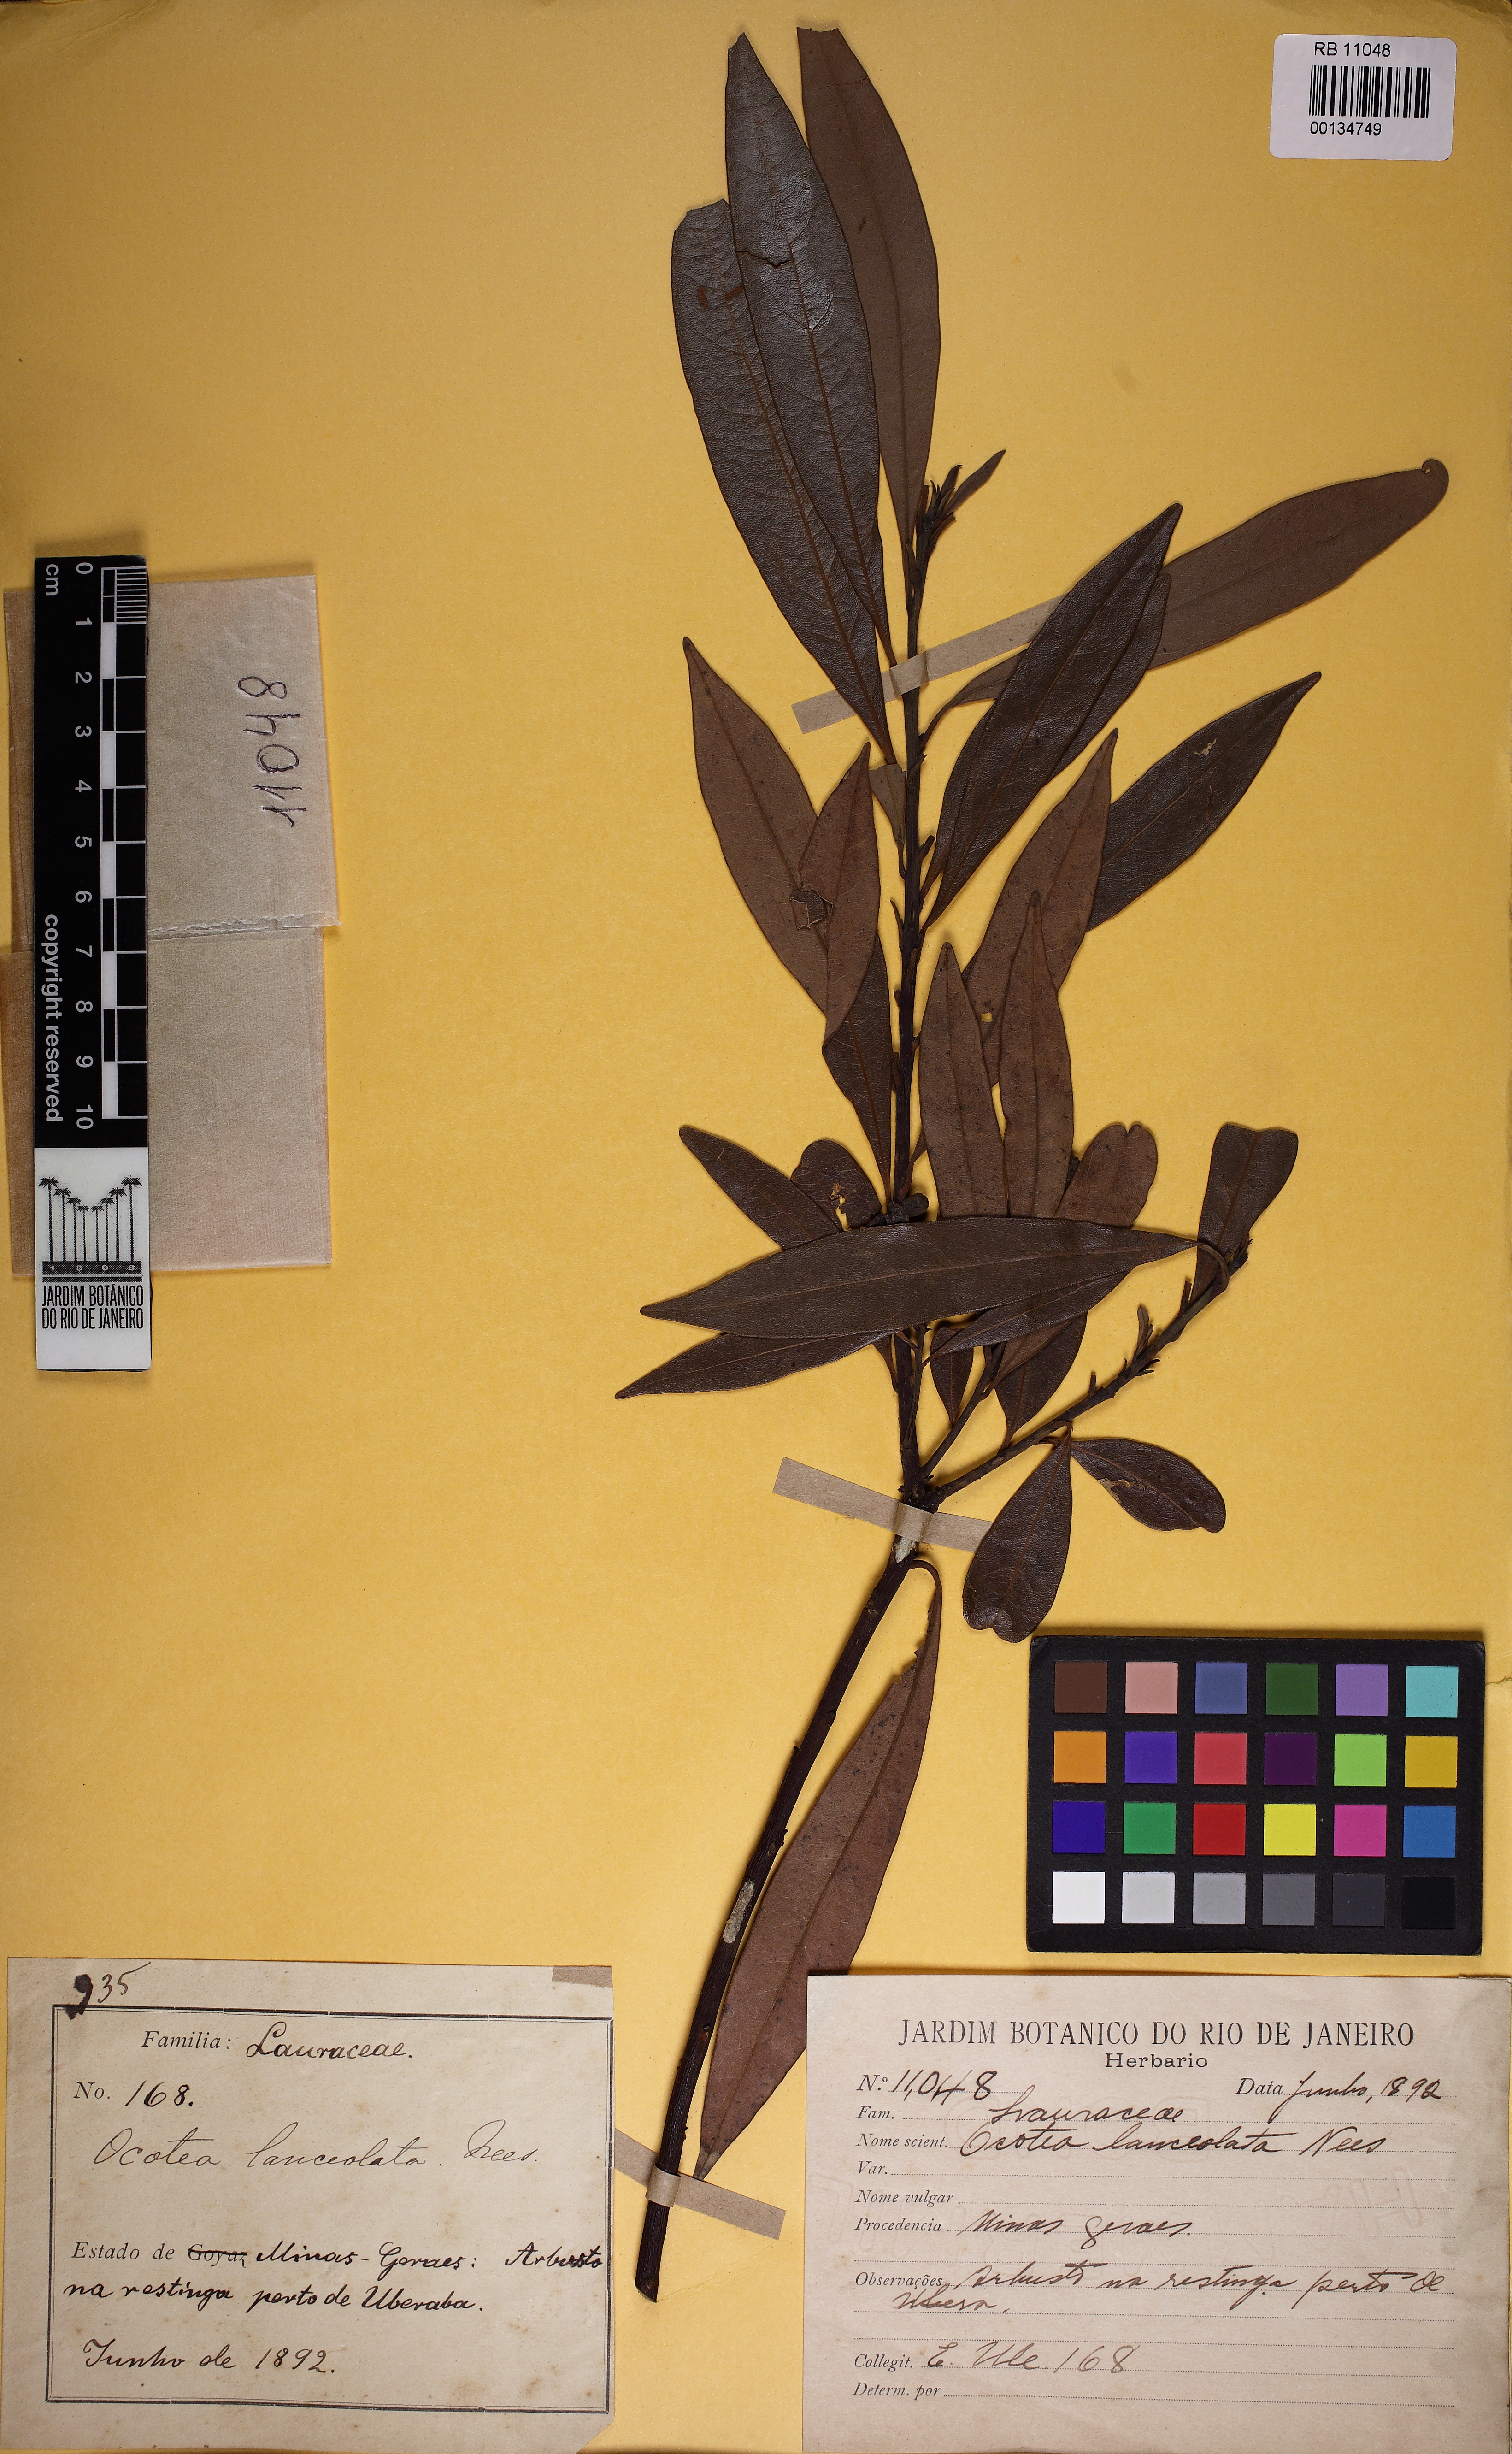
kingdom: Plantae
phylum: Tracheophyta
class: Magnoliopsida
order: Laurales
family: Lauraceae
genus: Phoebe
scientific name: Phoebe lanceolata
